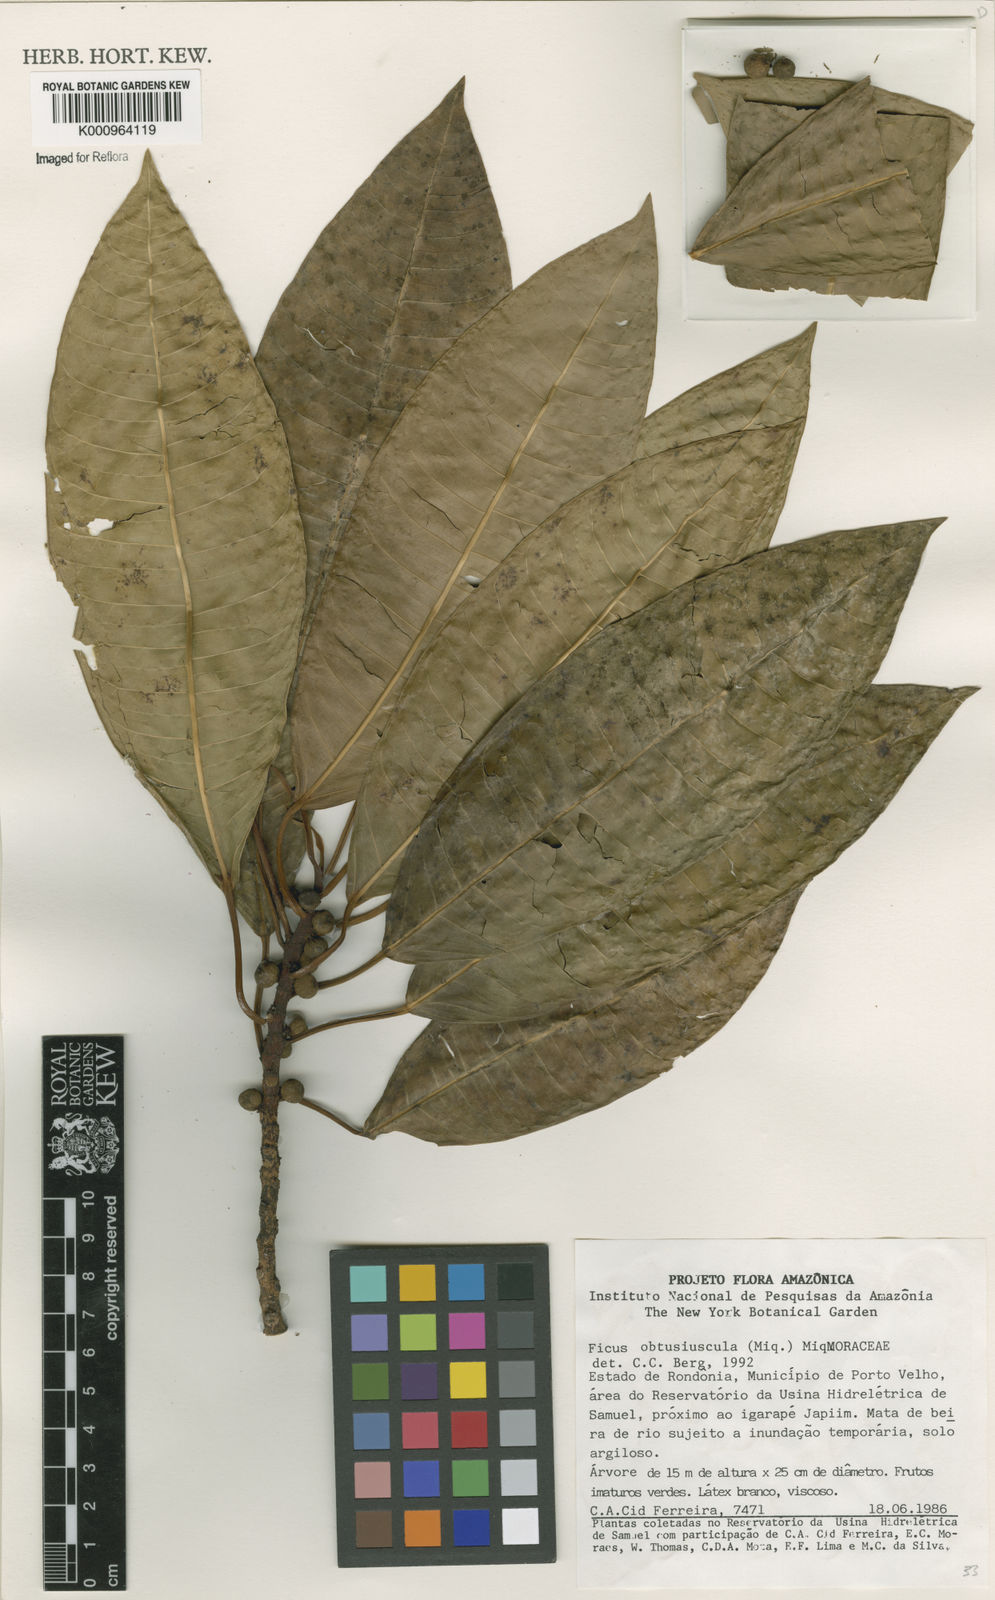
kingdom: Plantae
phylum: Tracheophyta
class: Magnoliopsida
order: Rosales
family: Moraceae
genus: Ficus
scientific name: Ficus obtusiuscula
